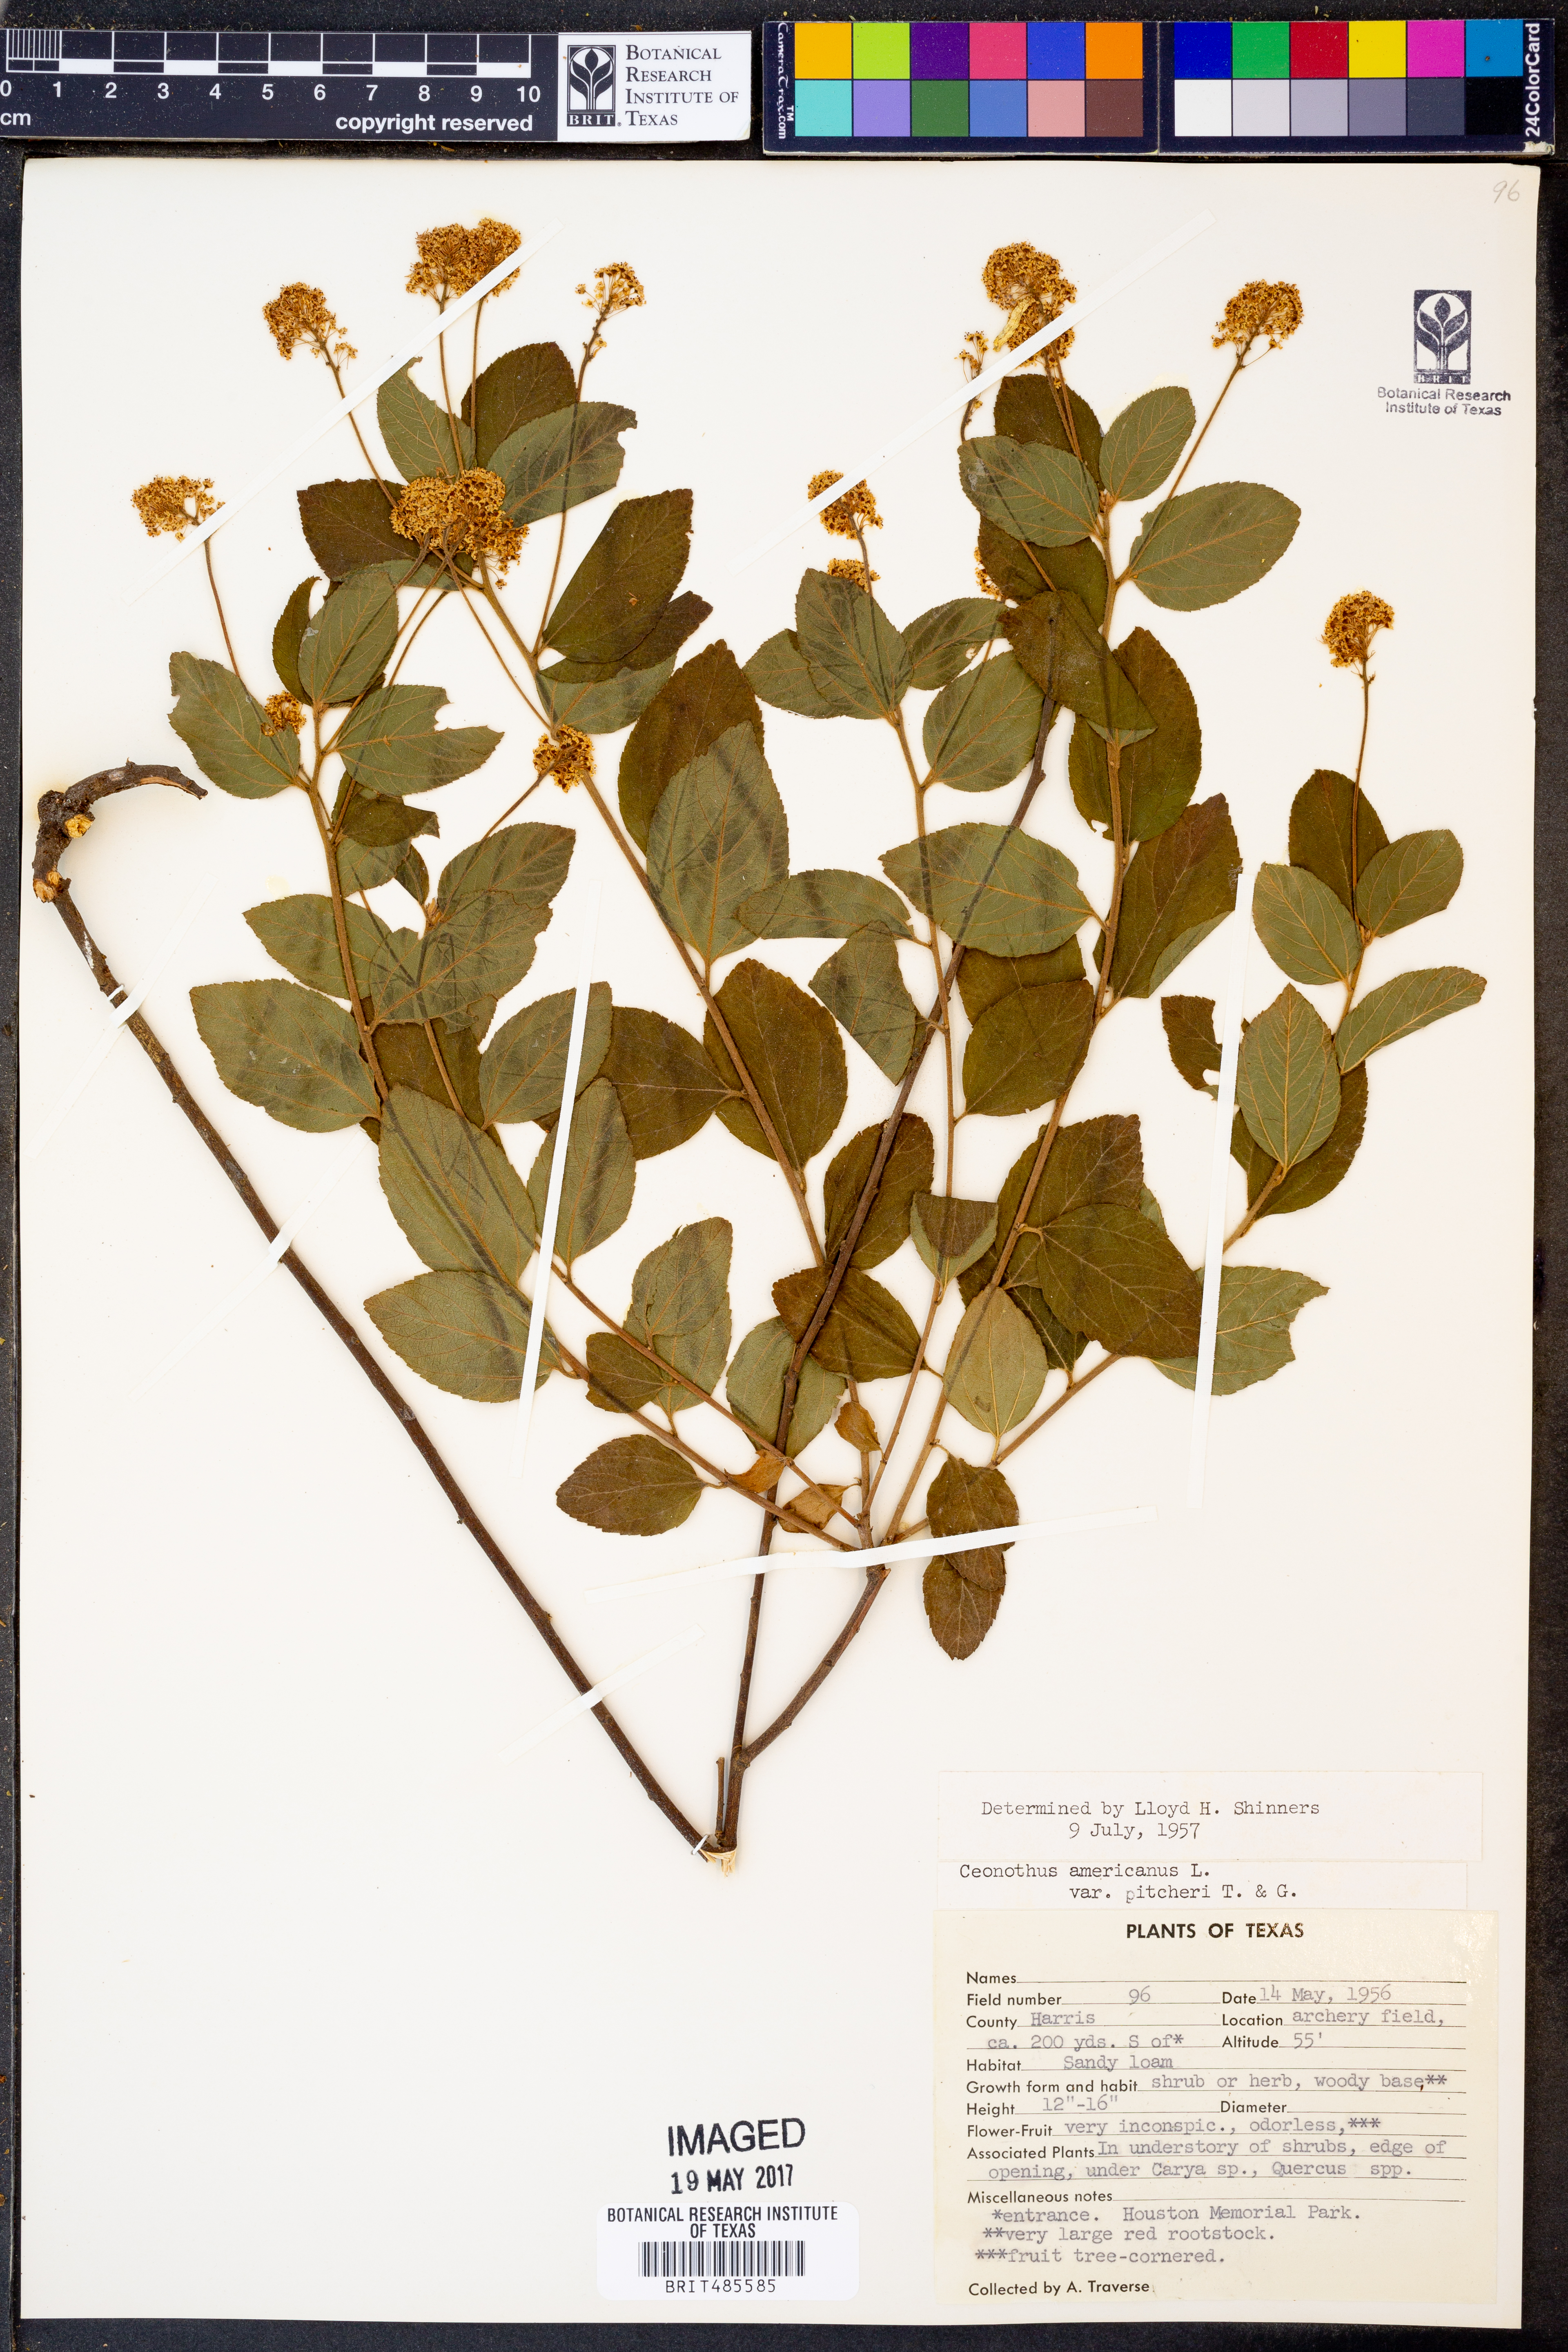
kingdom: Plantae
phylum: Tracheophyta
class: Magnoliopsida
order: Rosales
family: Rhamnaceae
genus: Ceanothus
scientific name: Ceanothus americanus
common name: Redroot
